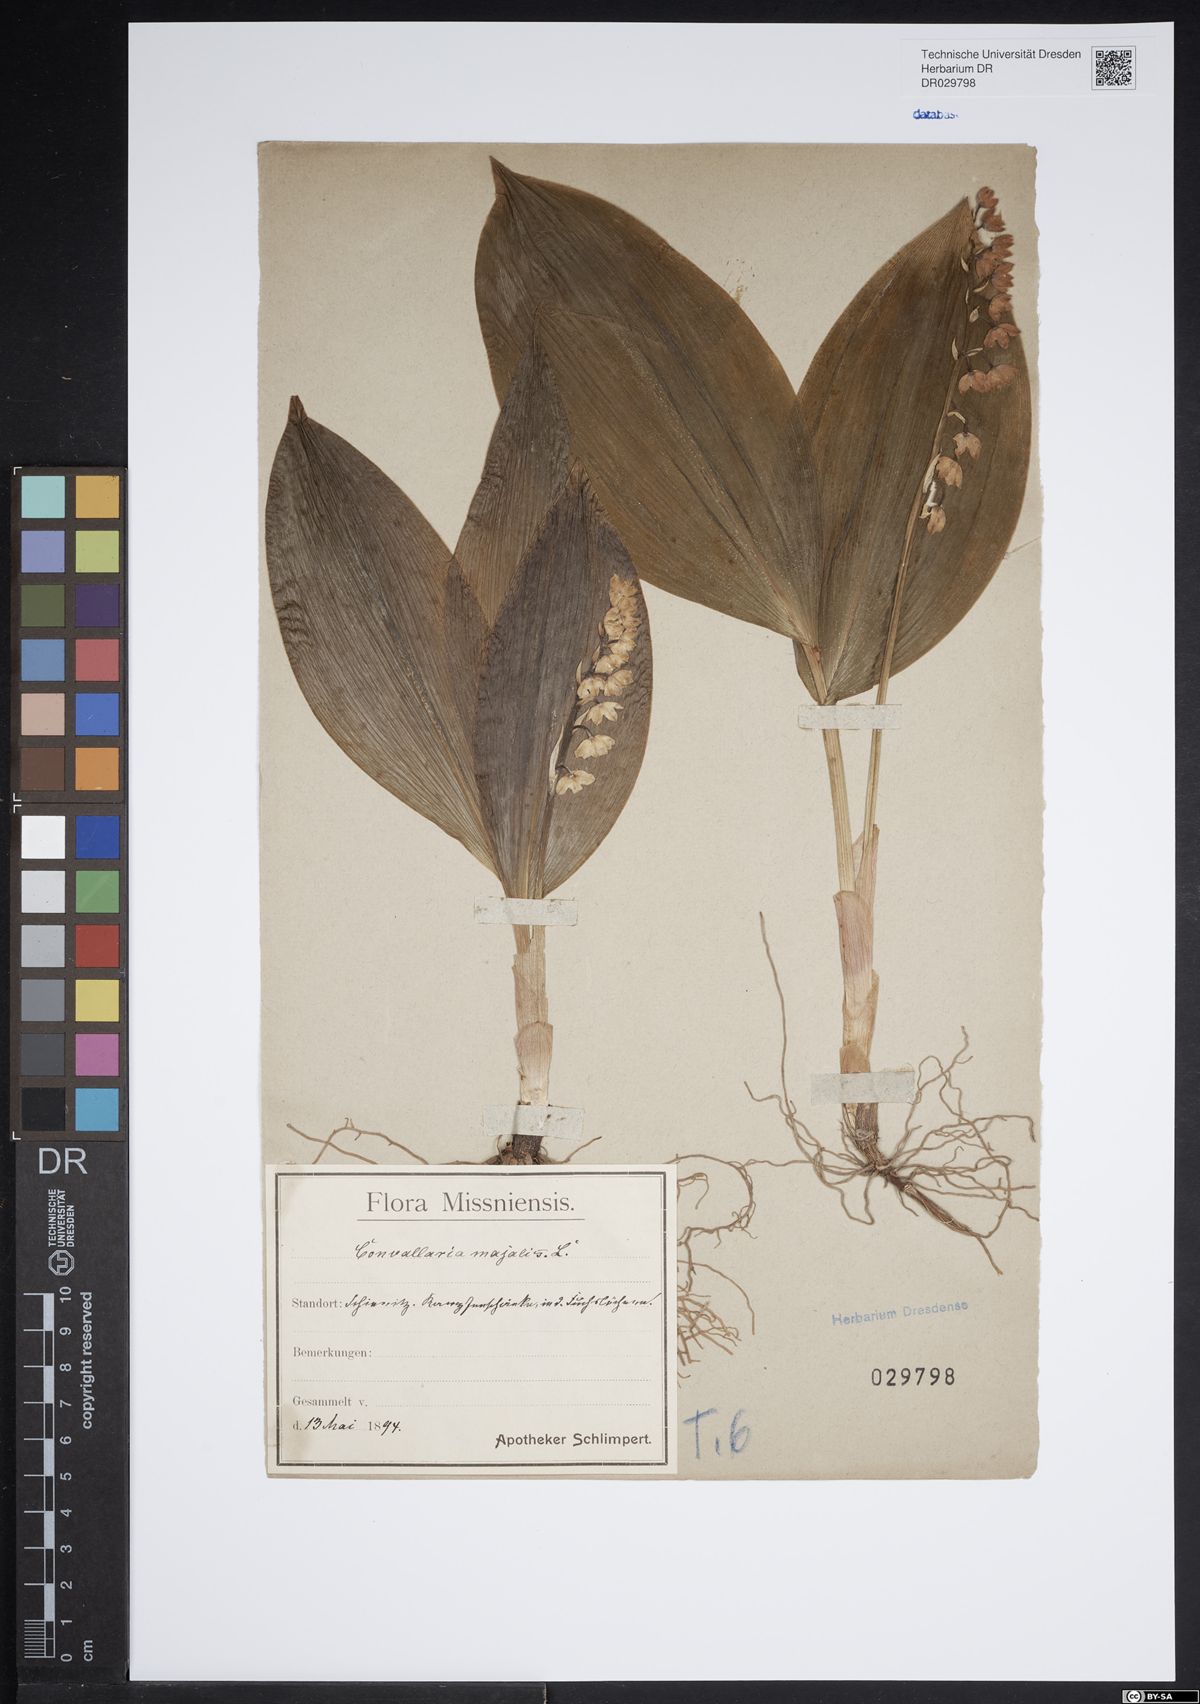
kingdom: Plantae
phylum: Tracheophyta
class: Liliopsida
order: Asparagales
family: Asparagaceae
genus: Convallaria
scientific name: Convallaria majalis
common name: Lily-of-the-valley
